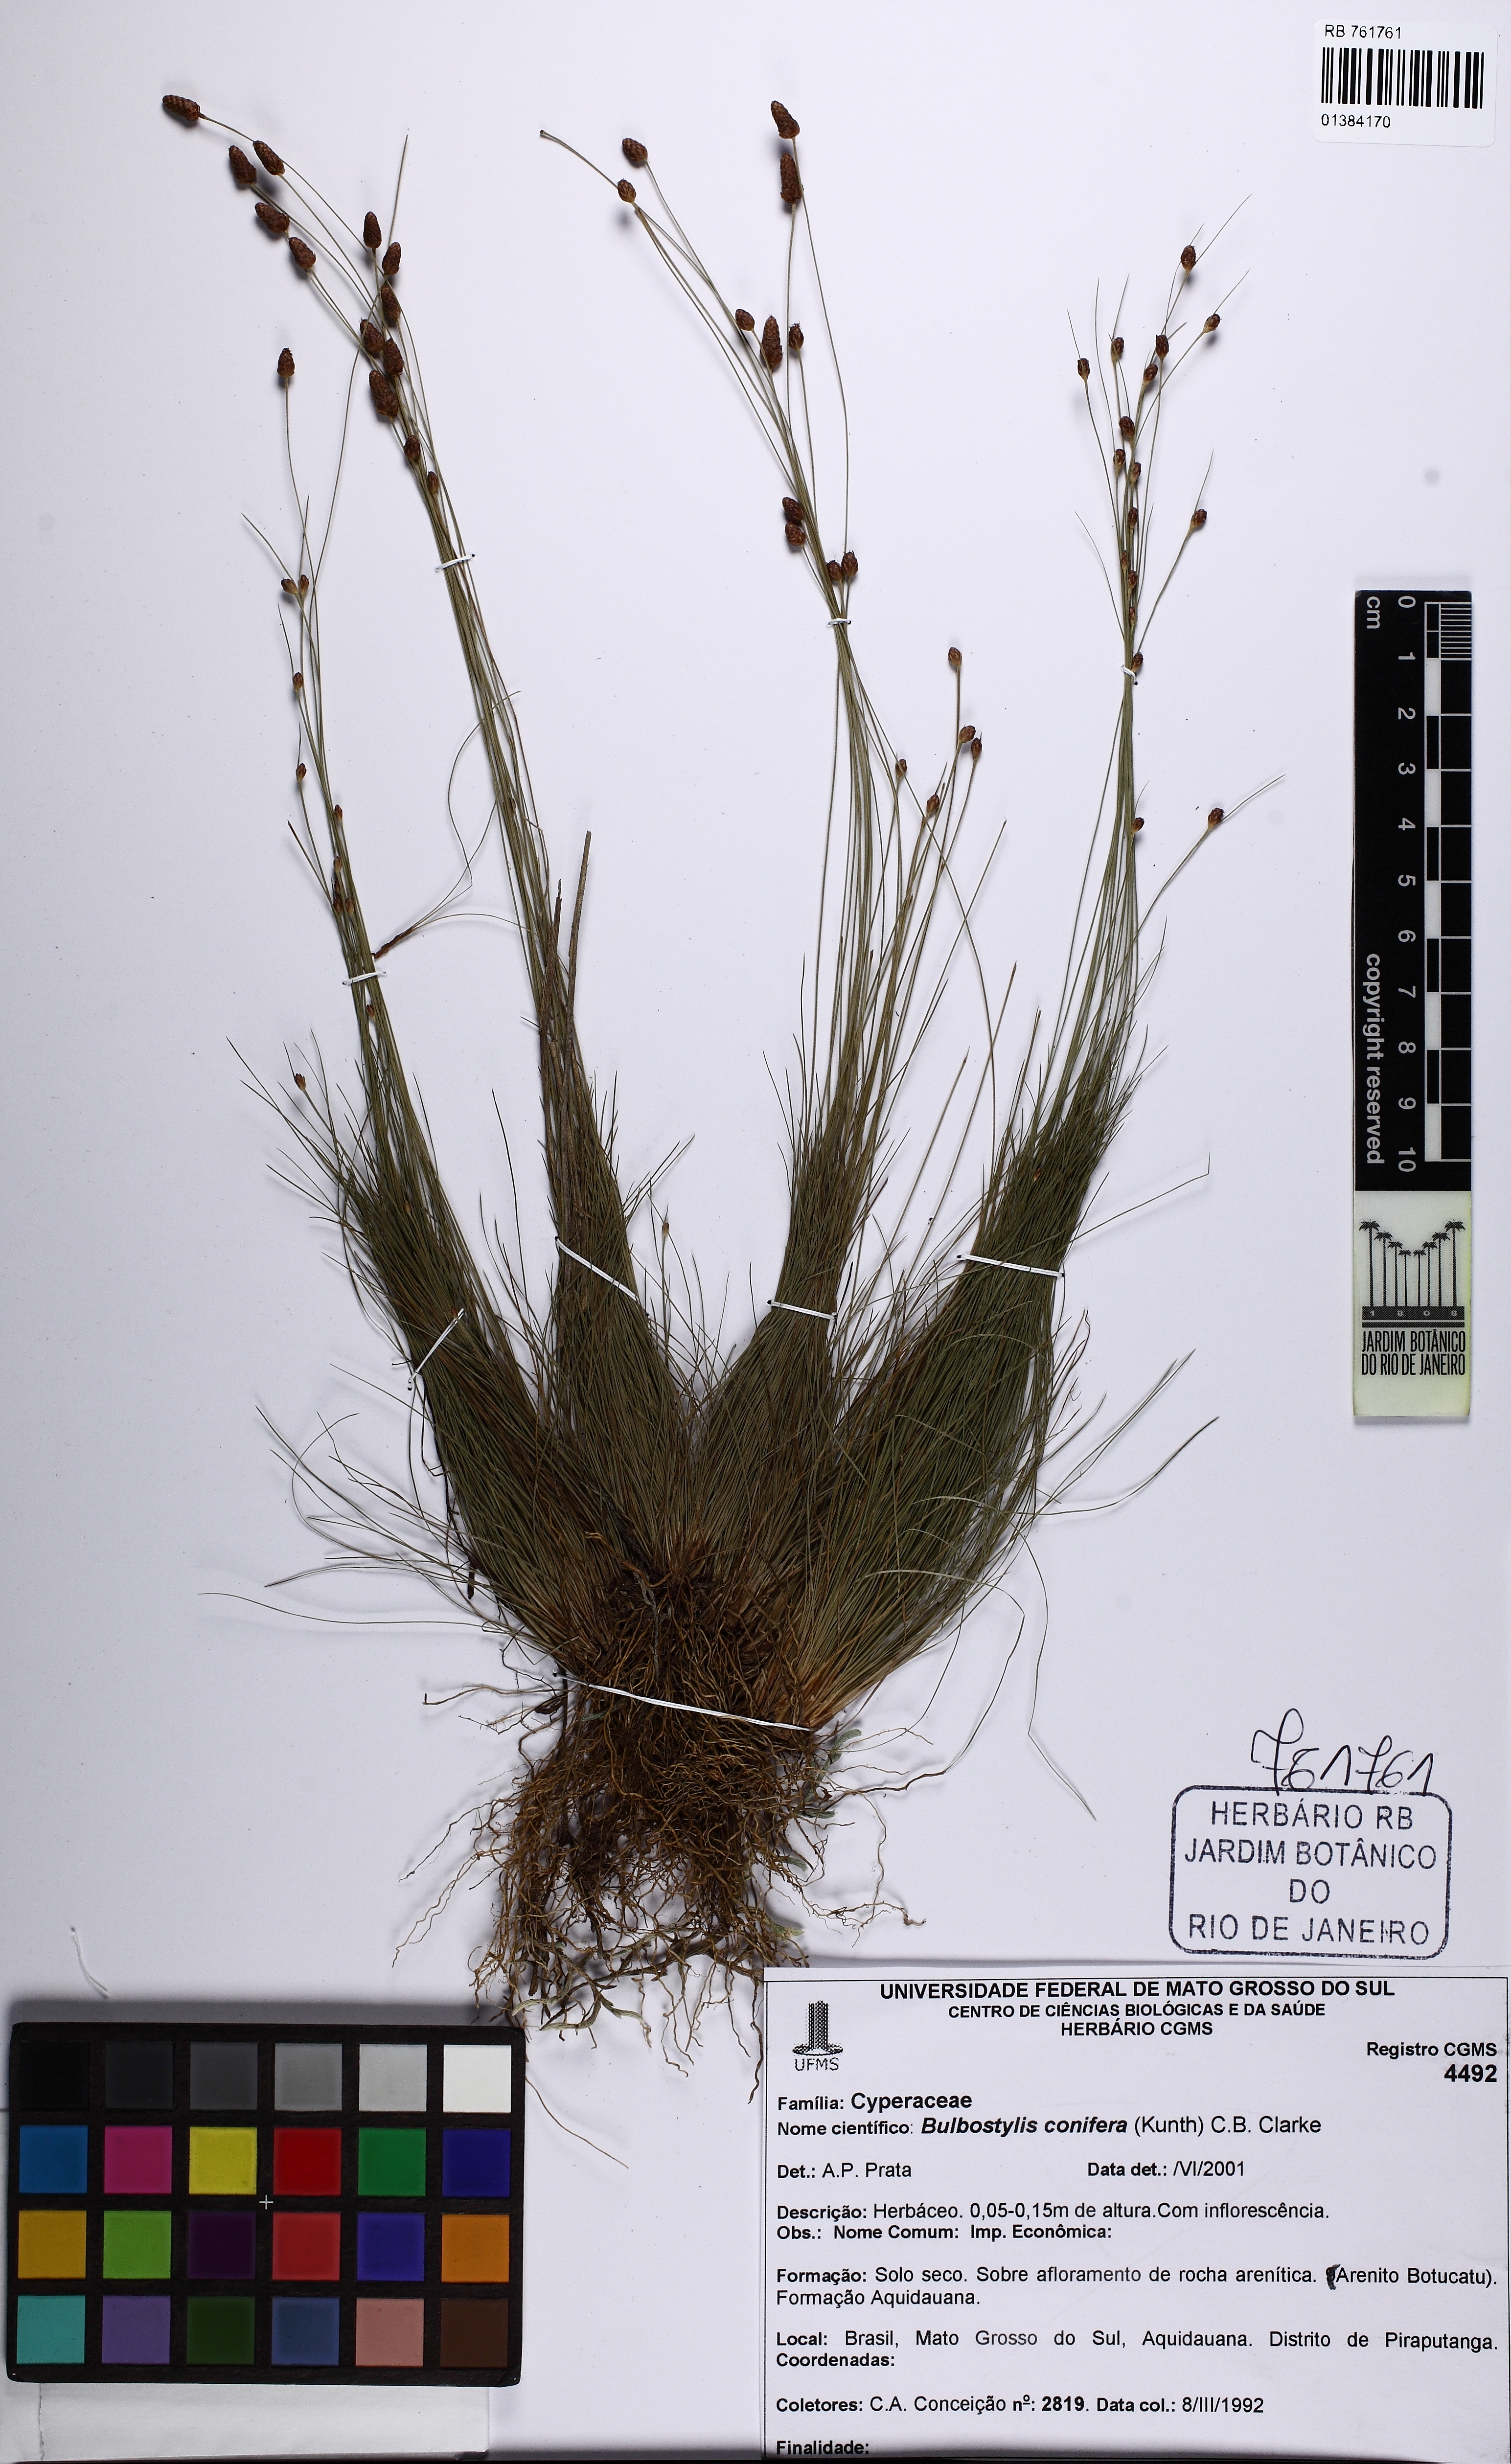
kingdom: Plantae
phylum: Tracheophyta
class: Liliopsida
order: Poales
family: Cyperaceae
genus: Bulbostylis
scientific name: Bulbostylis conifera
